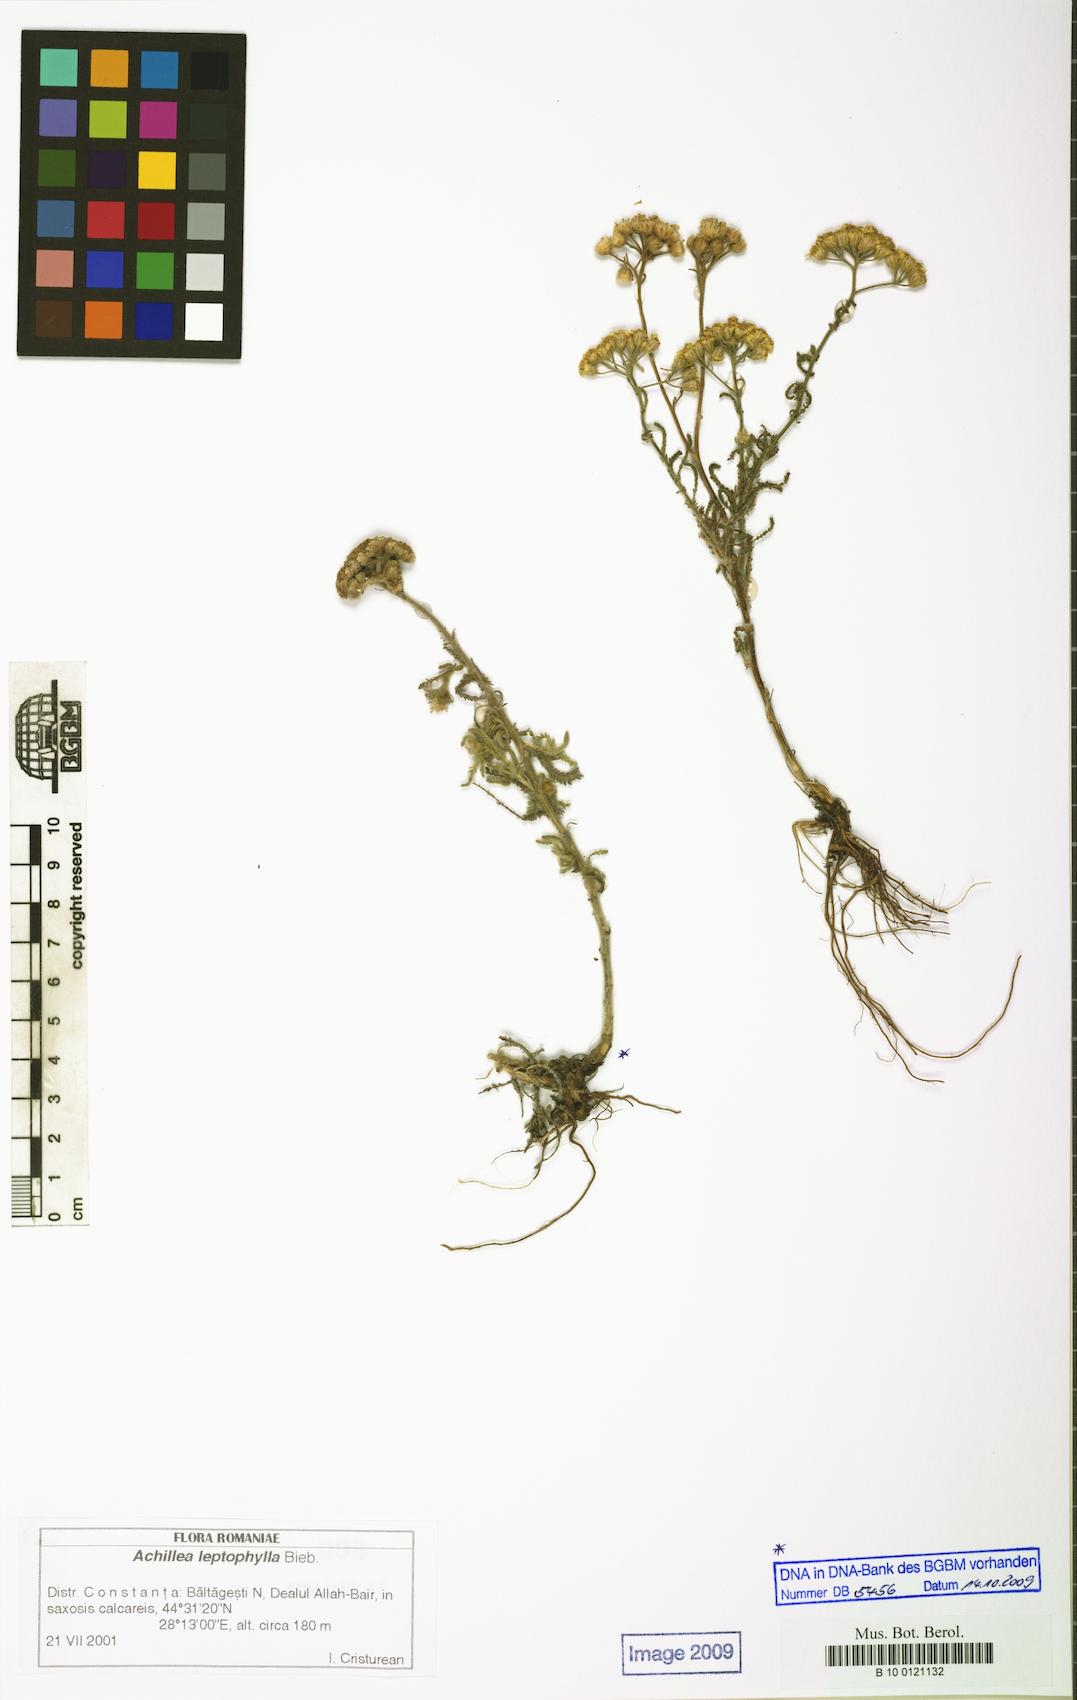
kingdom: Plantae
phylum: Tracheophyta
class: Magnoliopsida
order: Asterales
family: Asteraceae
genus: Achillea
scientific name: Achillea leptophylla
